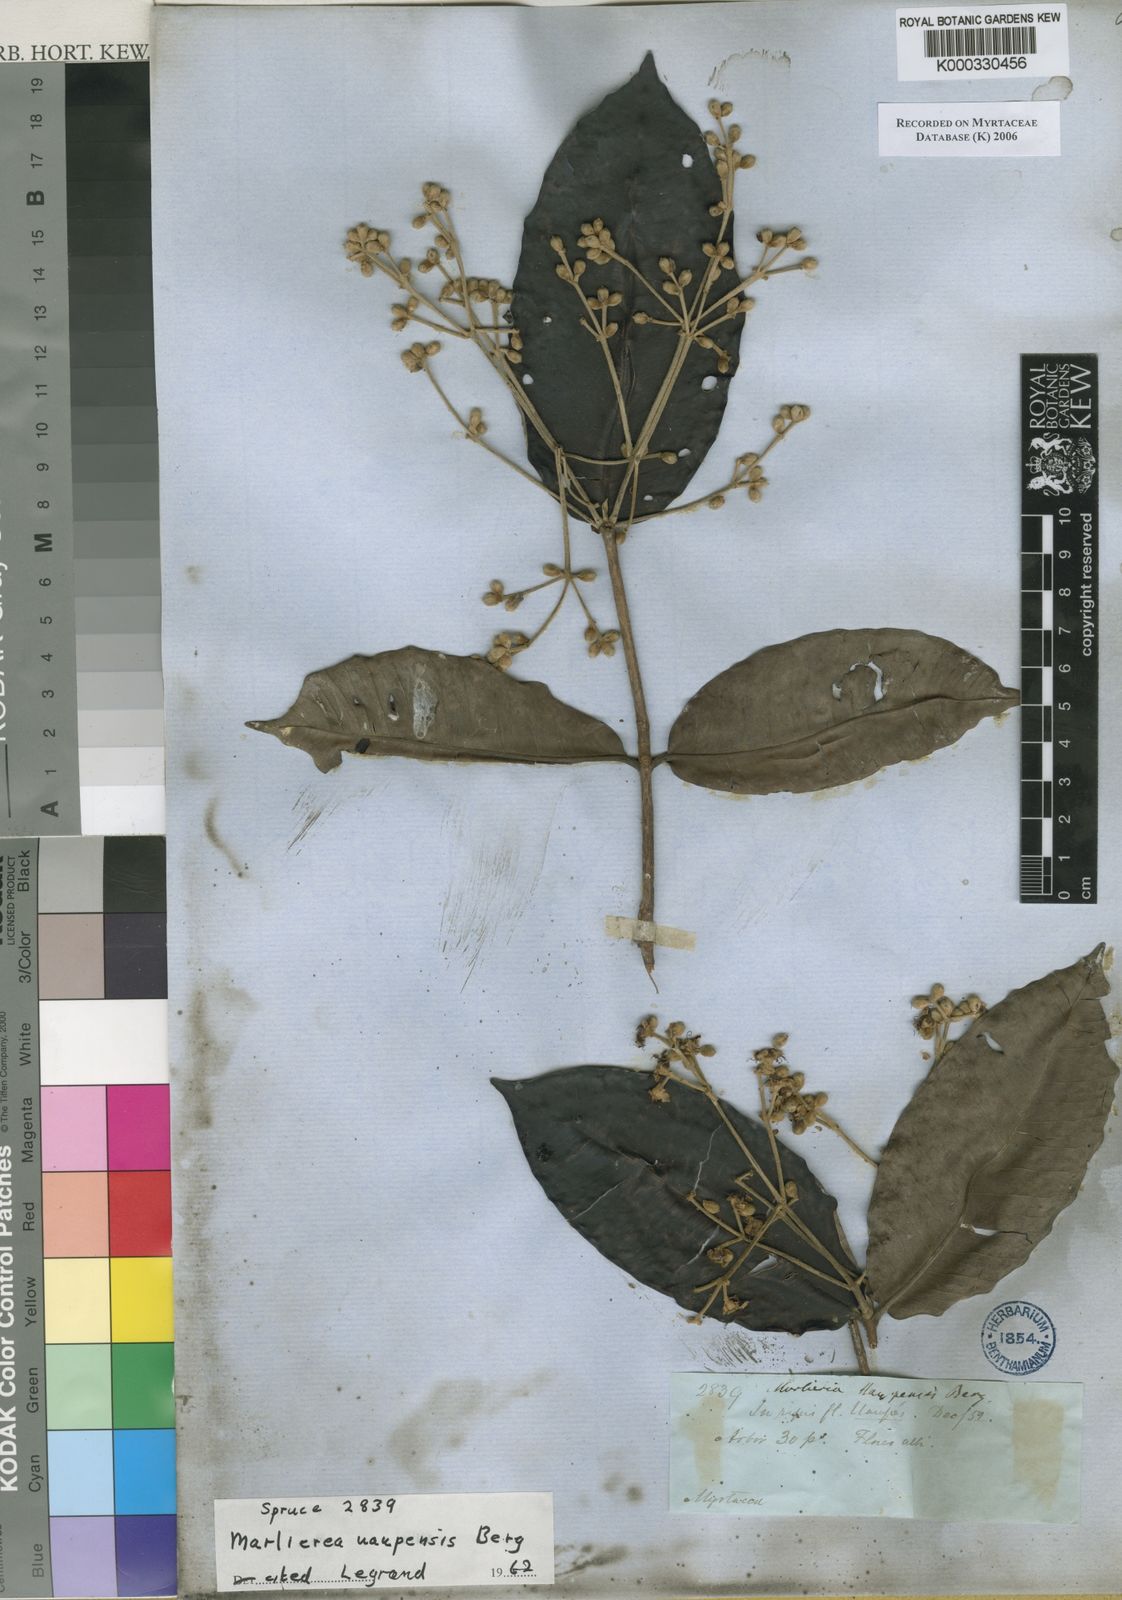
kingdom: Plantae
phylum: Tracheophyta
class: Magnoliopsida
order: Myrtales
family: Myrtaceae
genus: Myrcia
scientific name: Myrcia argentigemma
